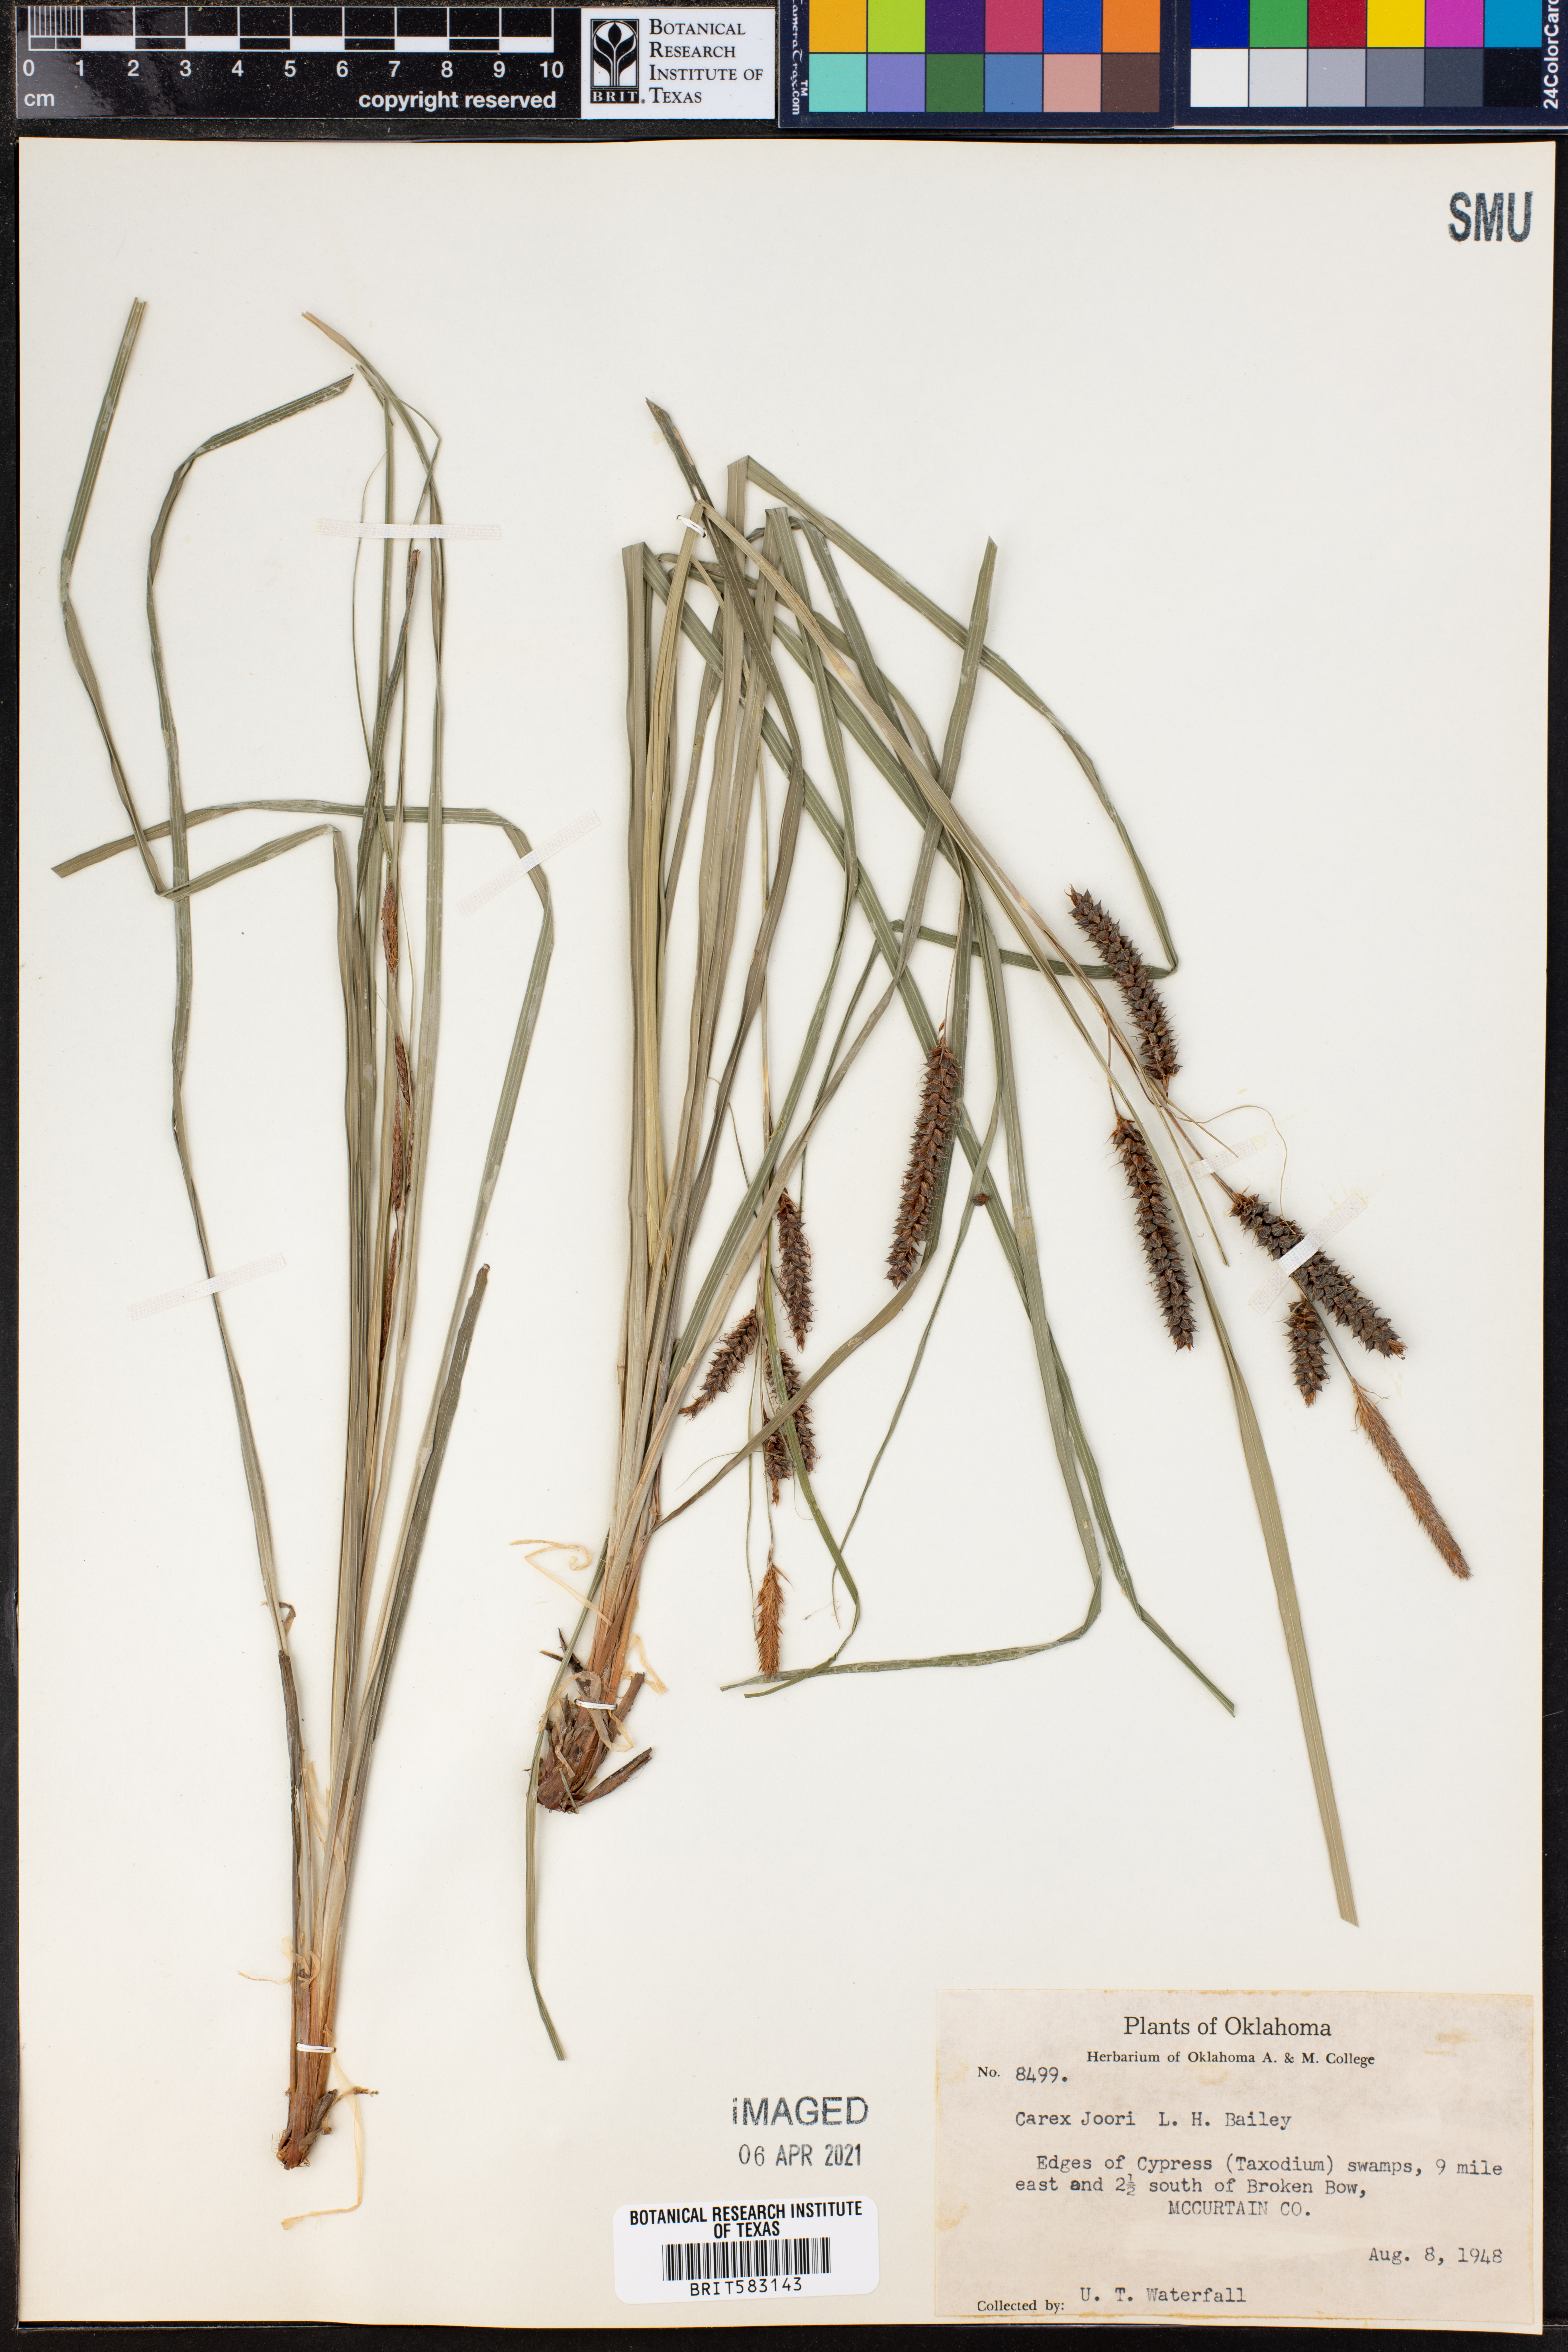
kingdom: Plantae
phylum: Tracheophyta
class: Liliopsida
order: Poales
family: Cyperaceae
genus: Carex
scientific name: Carex joorii
